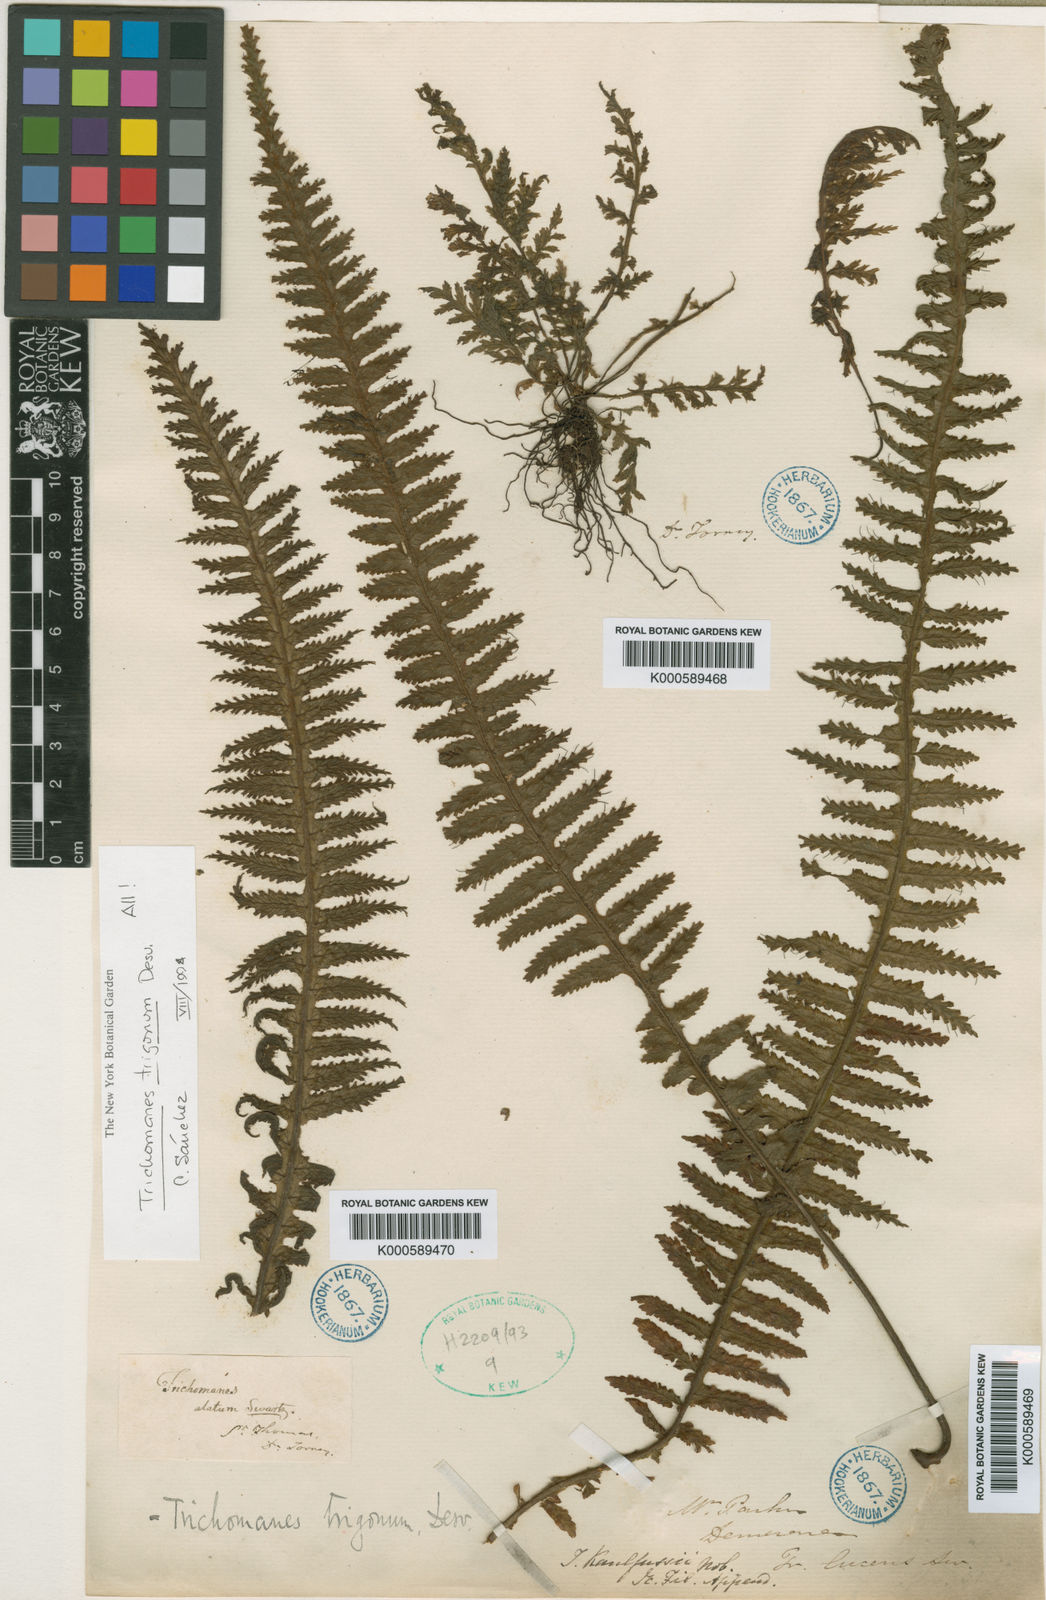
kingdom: Plantae
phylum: Tracheophyta
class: Polypodiopsida
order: Hymenophyllales
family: Hymenophyllaceae
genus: Trichomanes
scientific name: Trichomanes trigonum
